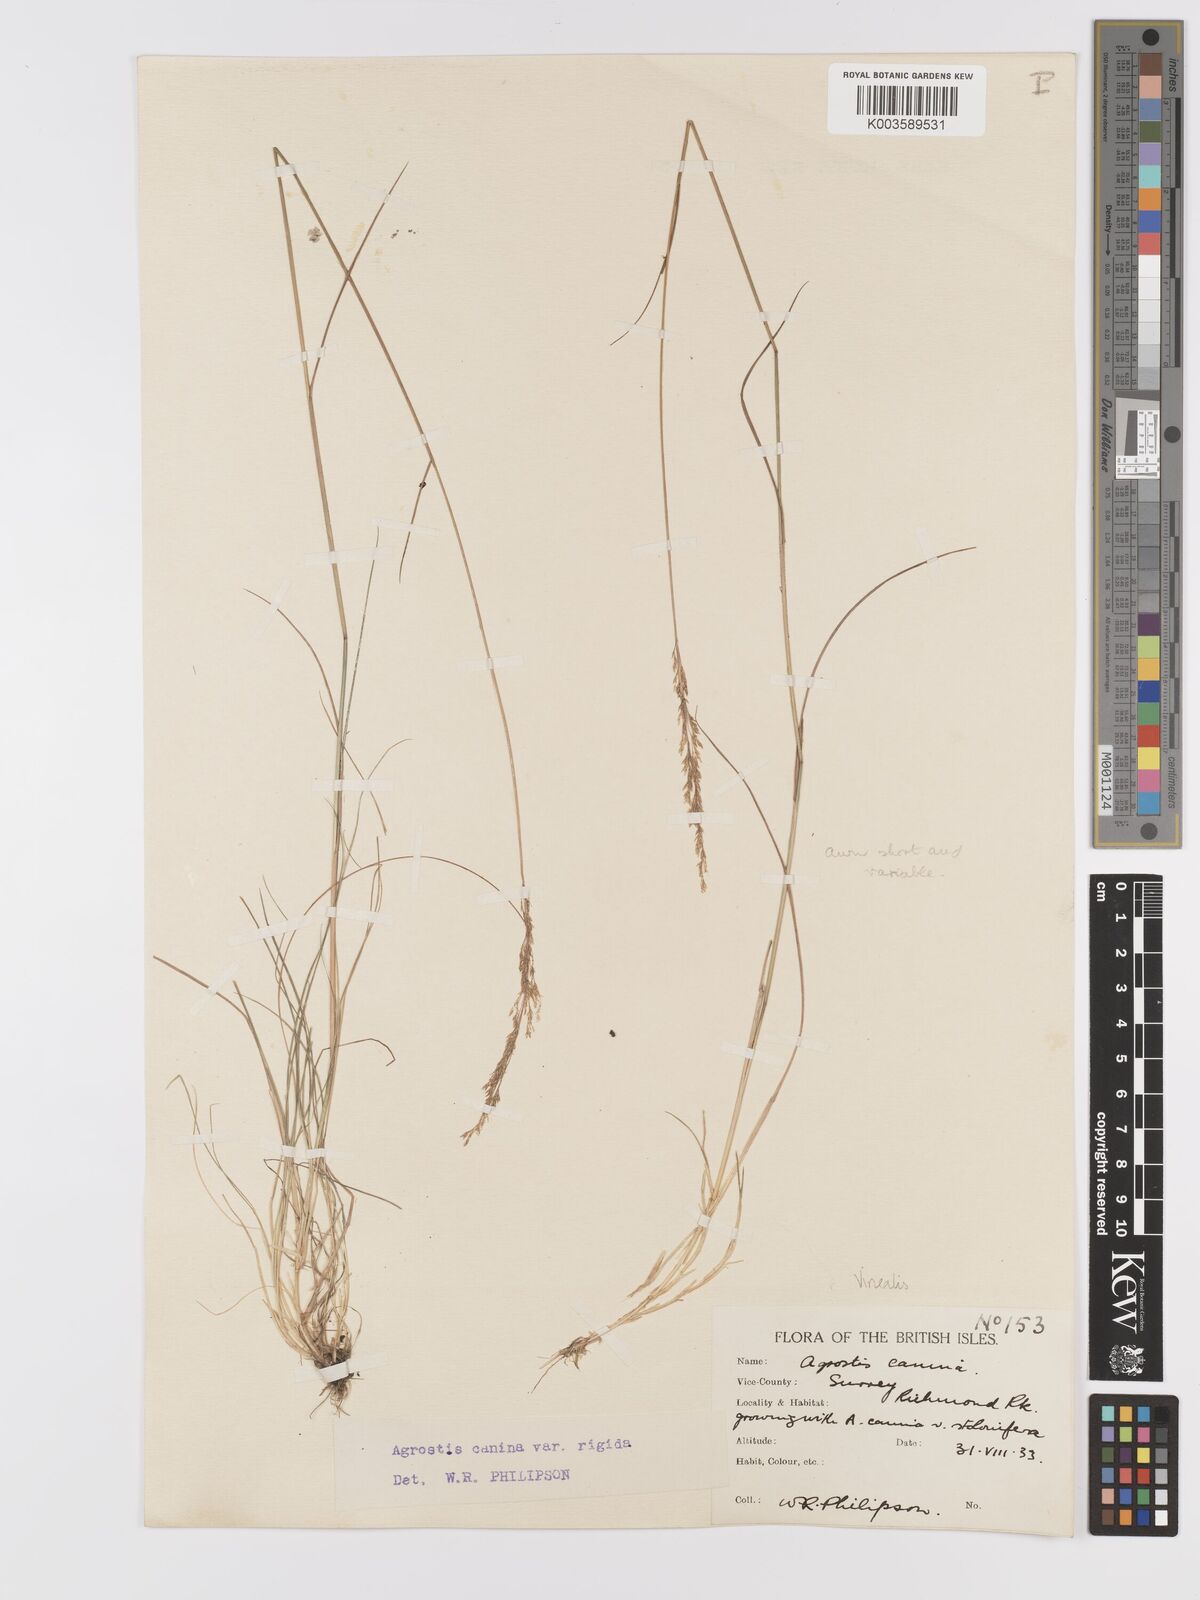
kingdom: Plantae
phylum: Tracheophyta
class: Liliopsida
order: Poales
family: Poaceae
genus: Agrostis
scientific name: Agrostis
